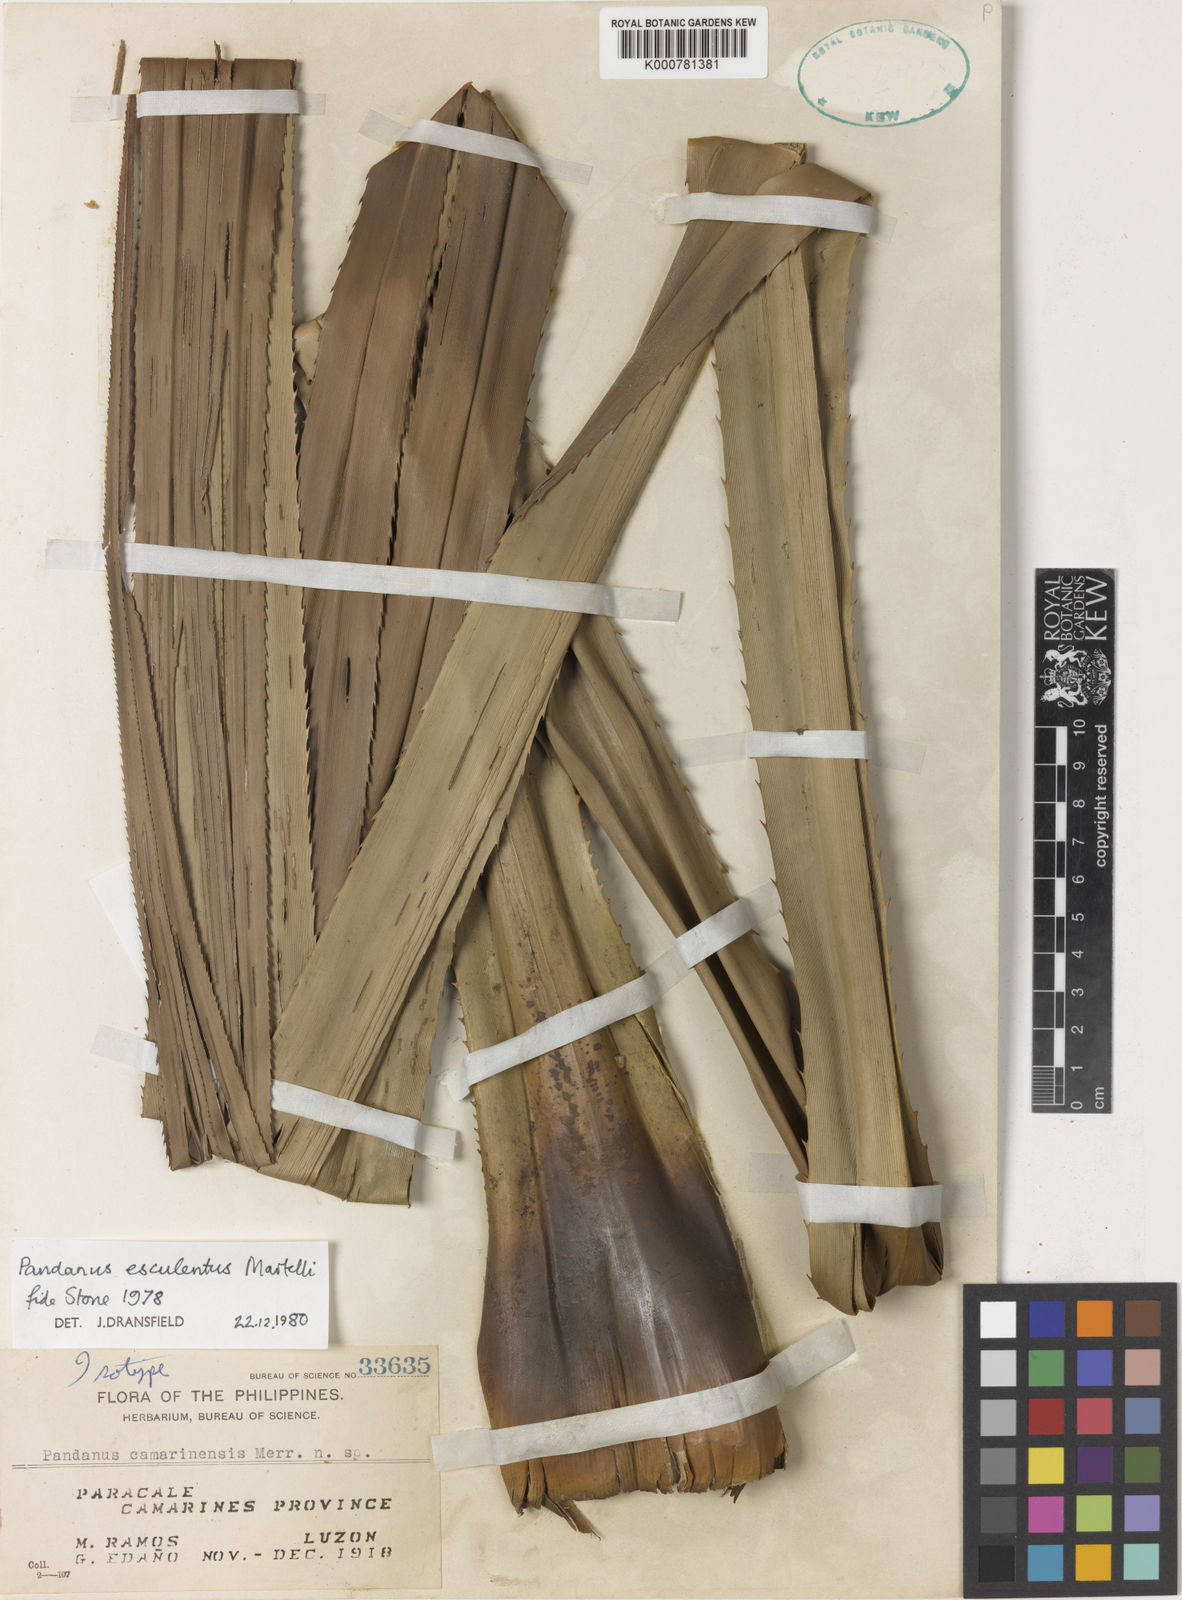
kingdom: Plantae
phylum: Tracheophyta
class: Liliopsida
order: Pandanales
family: Pandanaceae
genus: Pandanus
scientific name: Pandanus esculentus
